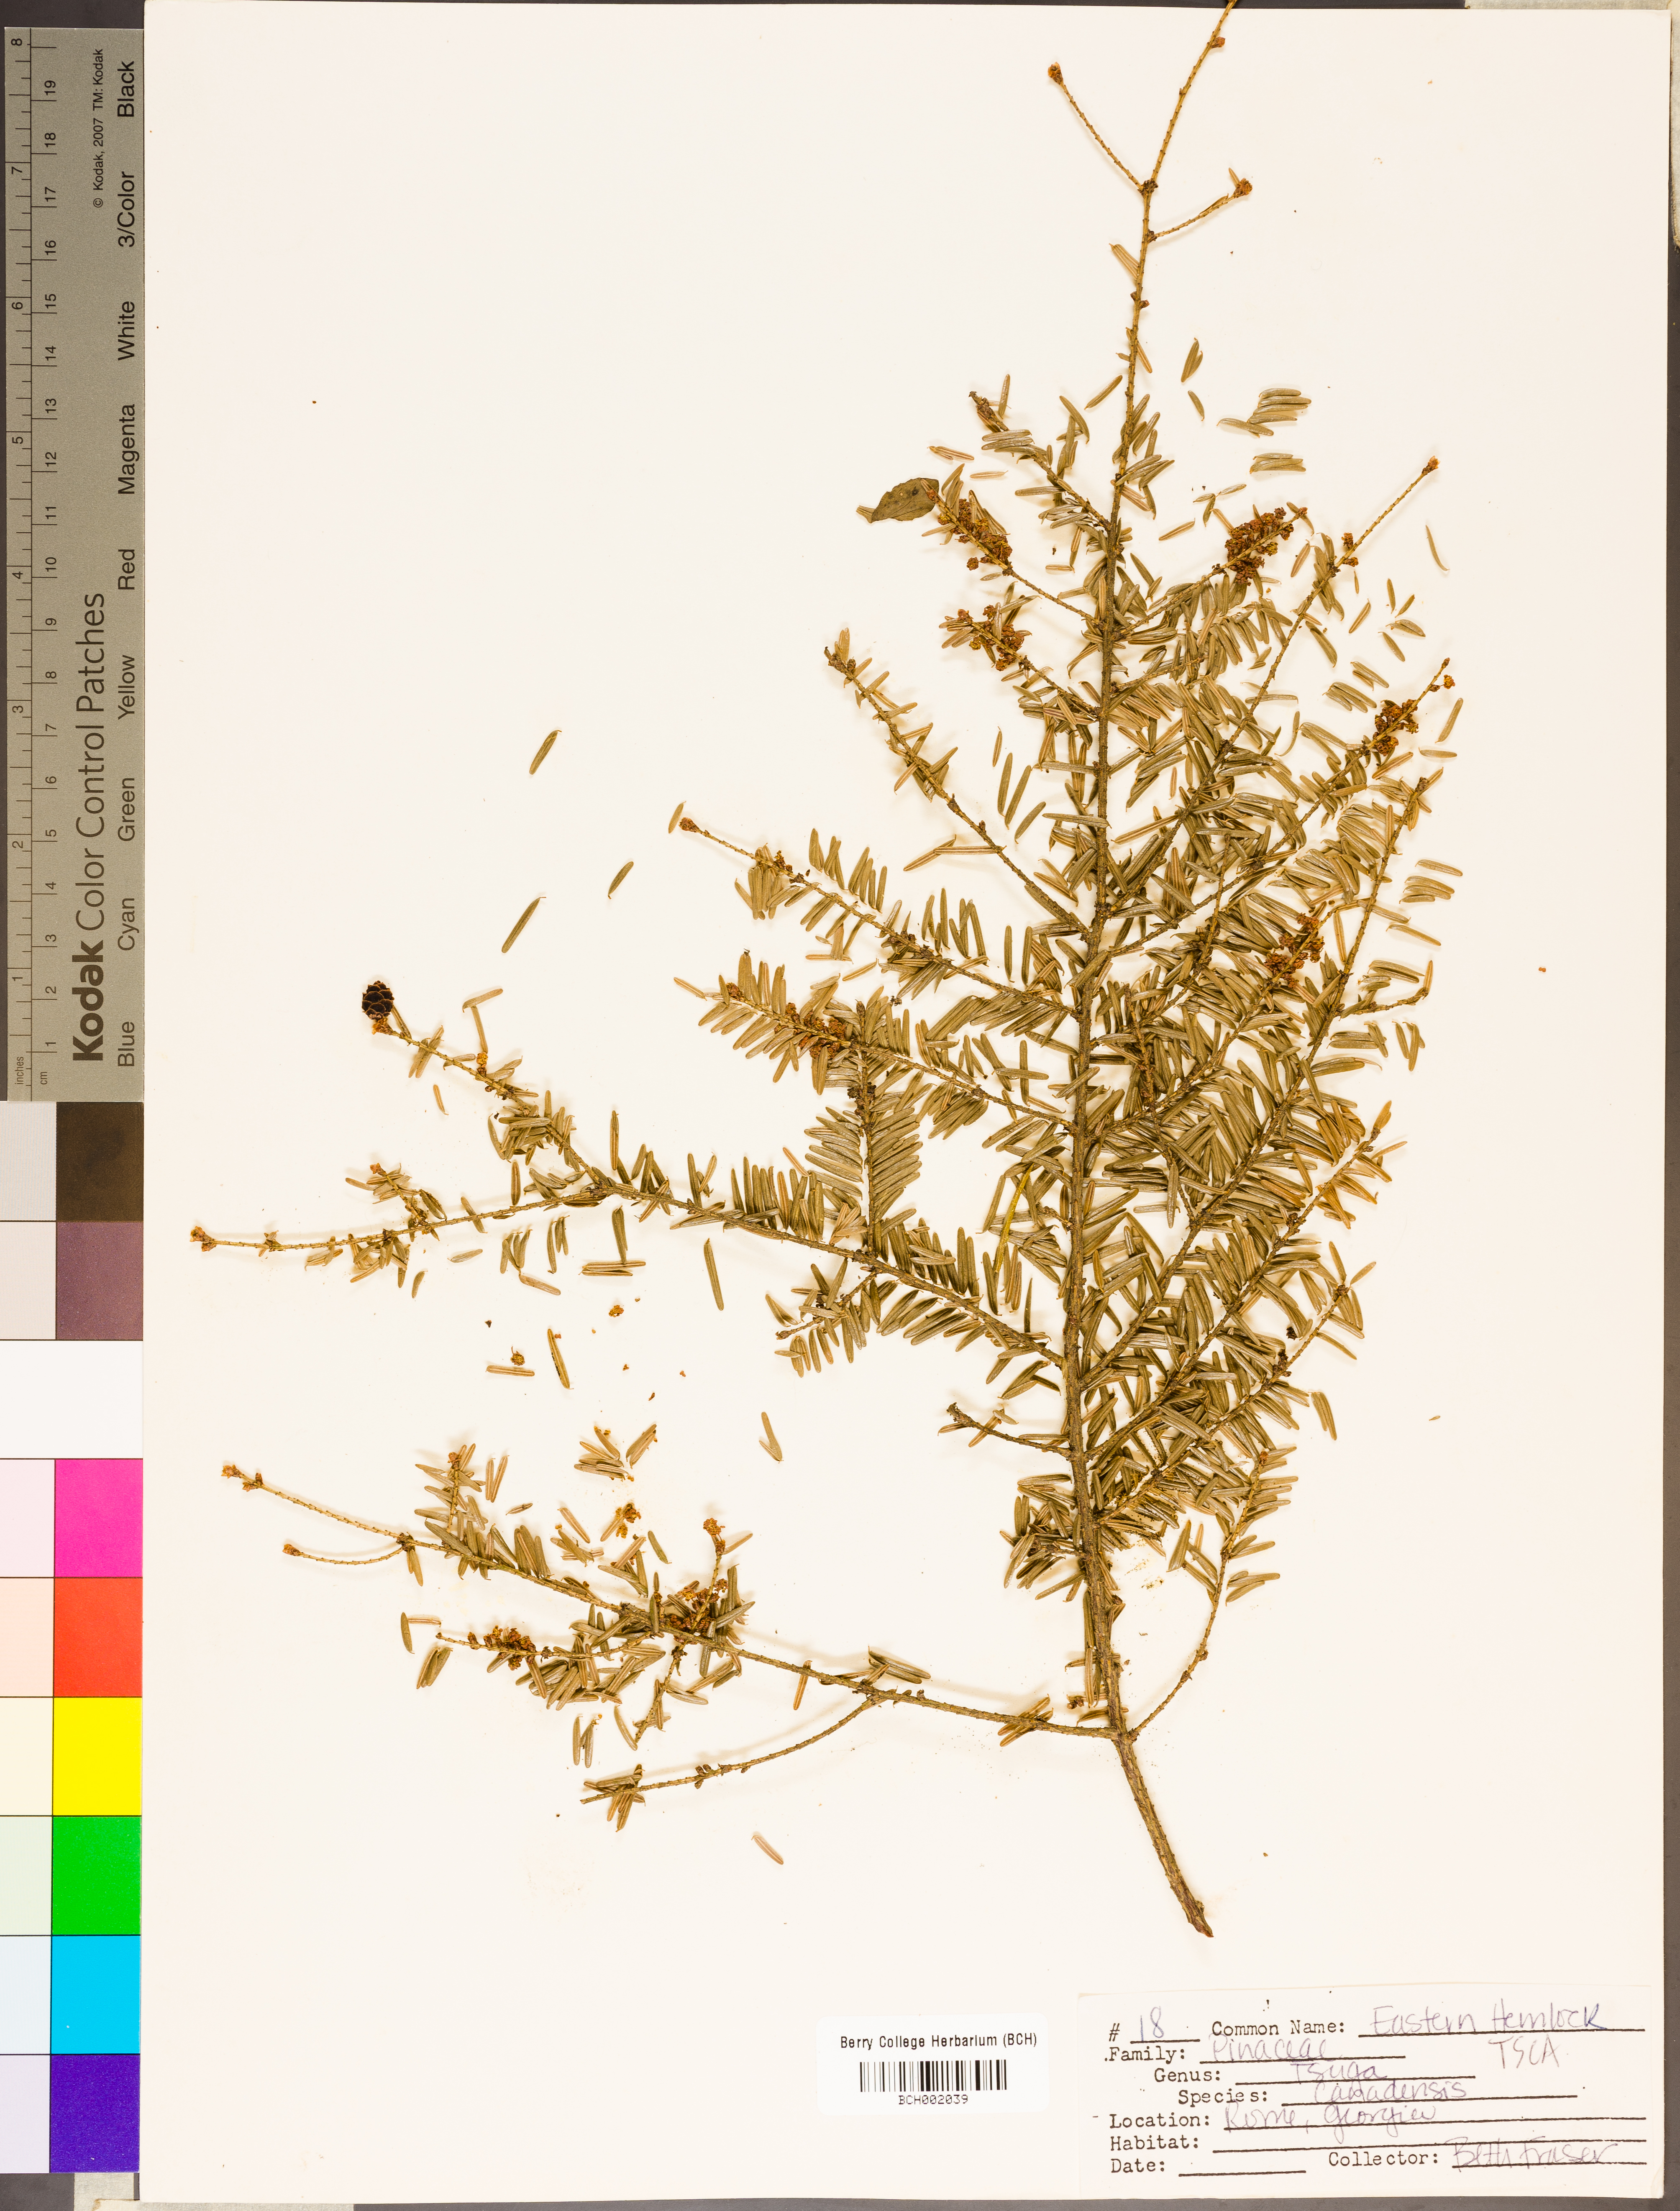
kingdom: Plantae
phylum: Tracheophyta
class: Pinopsida
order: Pinales
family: Pinaceae
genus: Tsuga
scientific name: Tsuga canadensis
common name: Eastern hemlock
